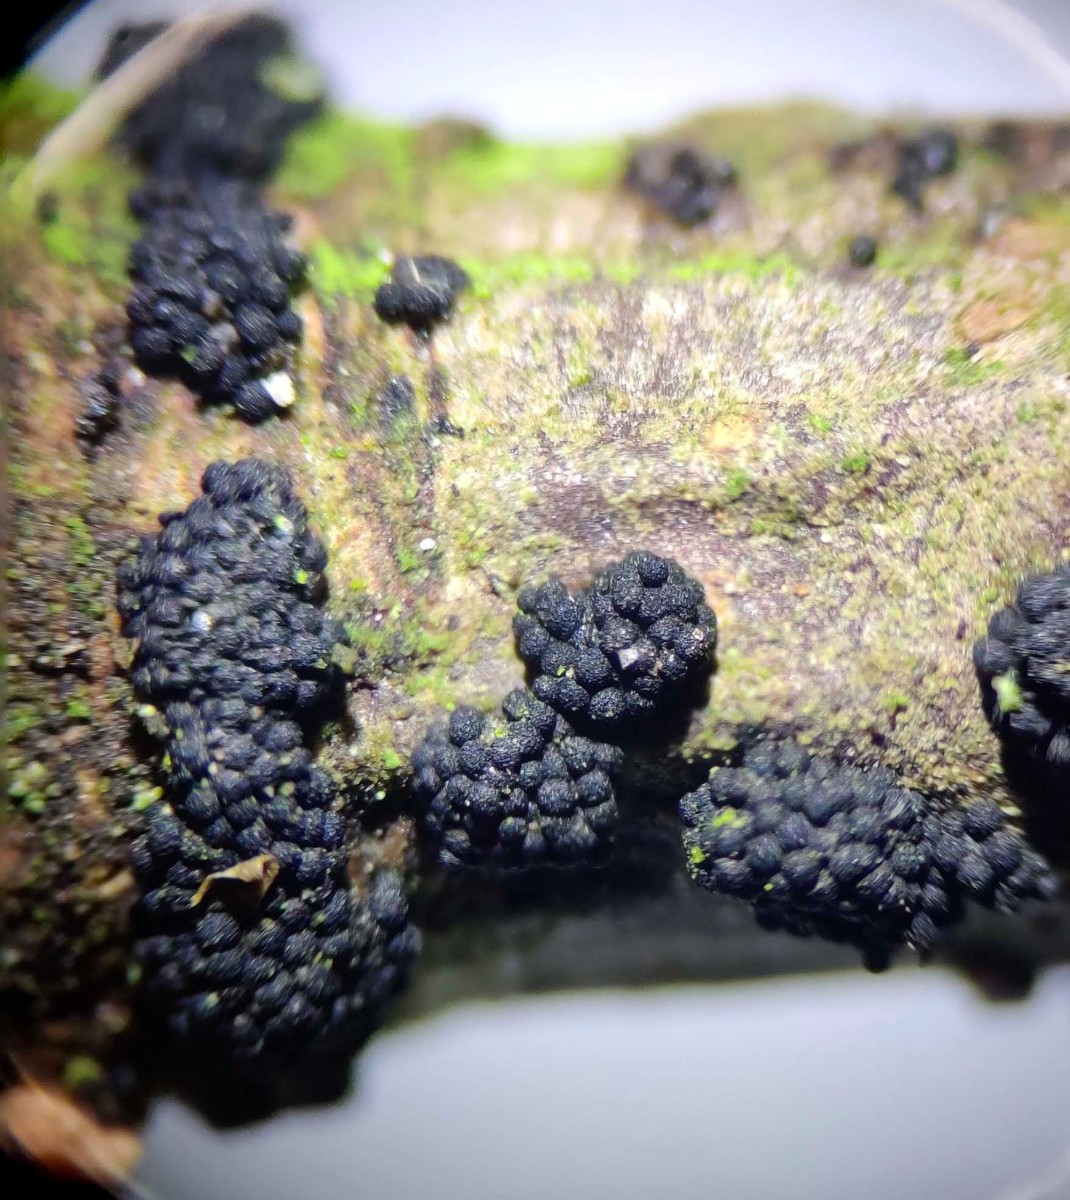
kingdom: Fungi
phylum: Ascomycota
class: Sordariomycetes
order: Coronophorales
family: Nitschkiaceae
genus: Nitschkia
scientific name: Nitschkia parasitans
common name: snyltende skålkerne
